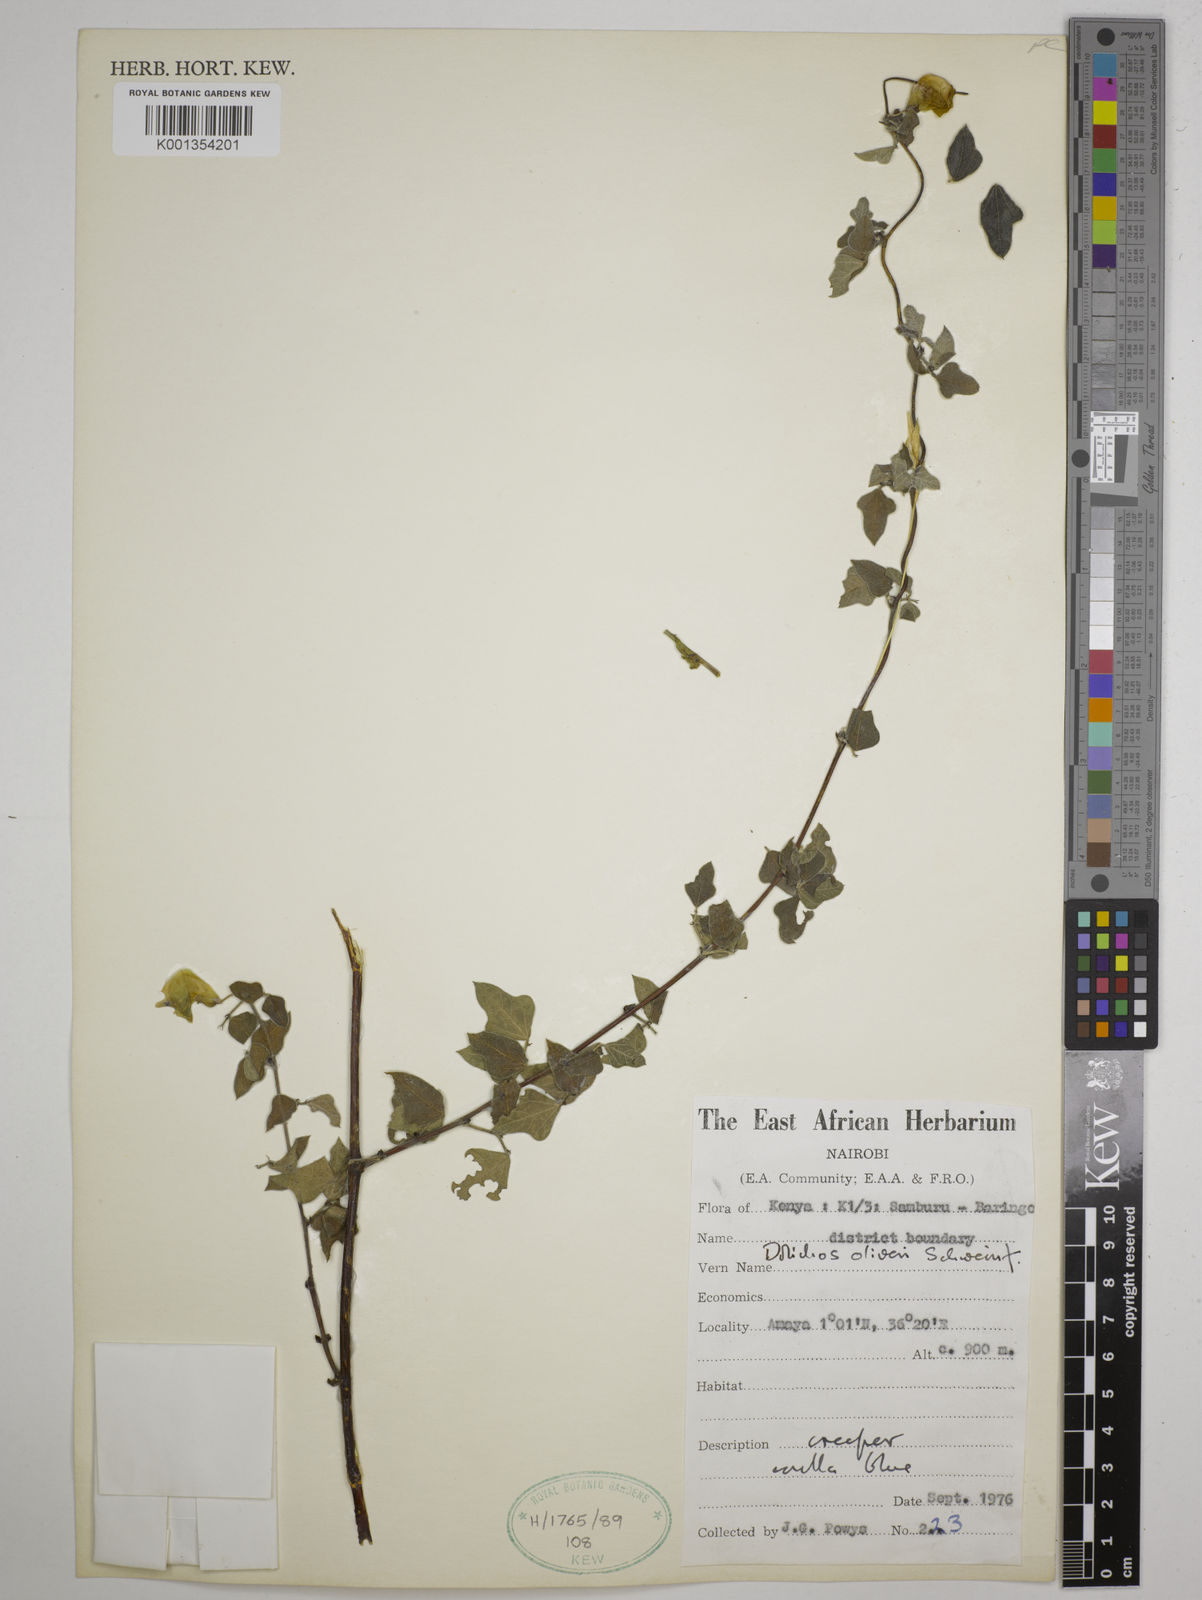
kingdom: Plantae
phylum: Tracheophyta
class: Magnoliopsida
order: Fabales
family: Fabaceae
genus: Dolichos
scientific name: Dolichos
